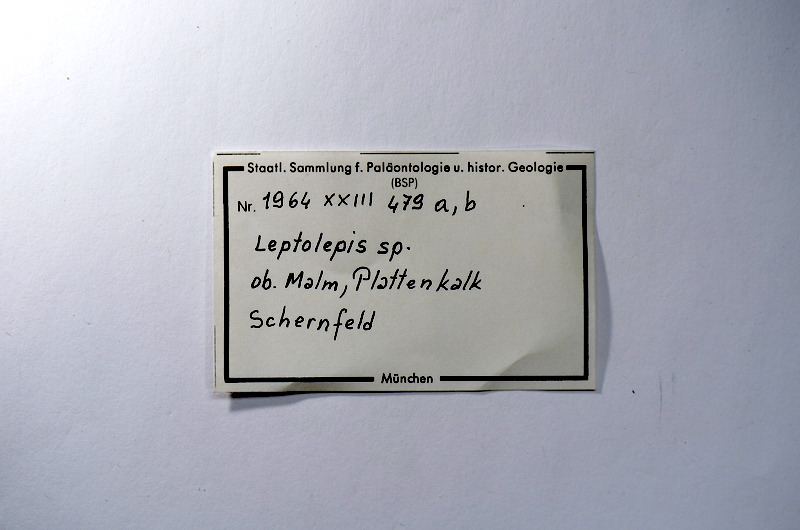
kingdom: Animalia
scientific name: Animalia
